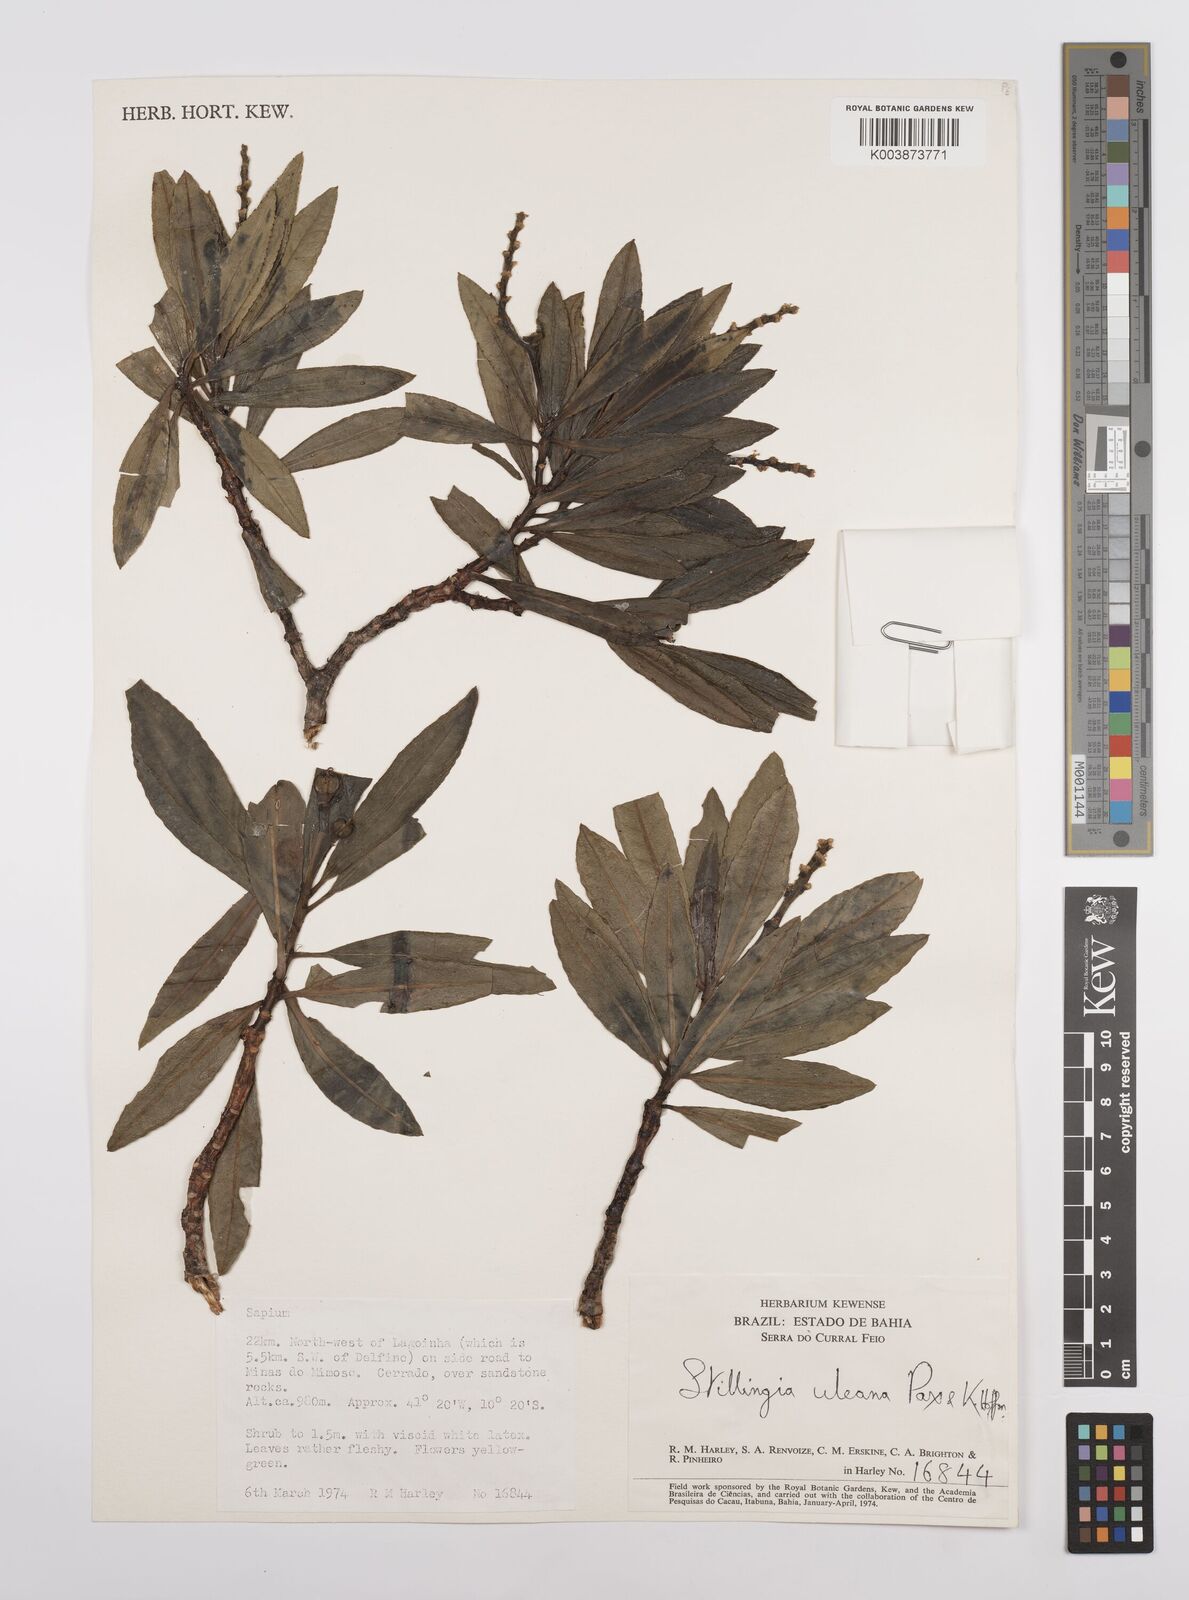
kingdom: Plantae
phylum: Tracheophyta
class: Magnoliopsida
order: Malpighiales
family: Euphorbiaceae
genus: Stillingia
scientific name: Stillingia uleana
